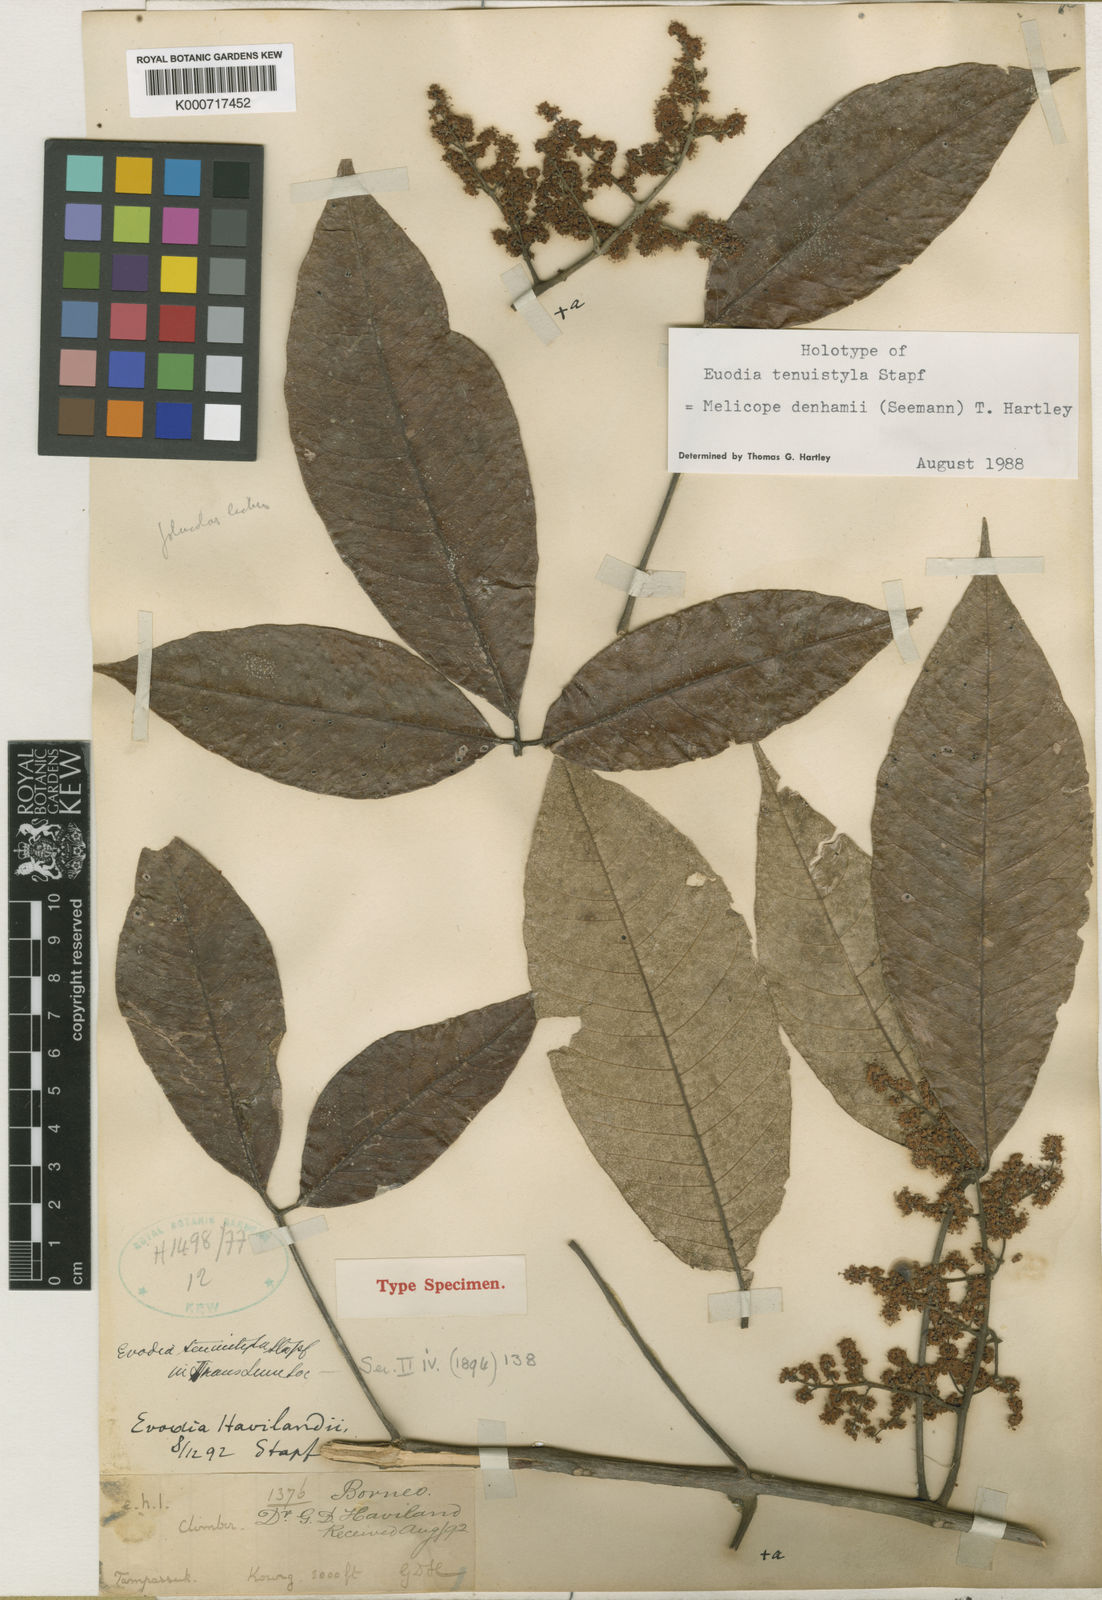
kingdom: Plantae
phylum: Tracheophyta
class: Magnoliopsida
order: Sapindales
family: Rutaceae
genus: Melicope
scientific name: Melicope denhamii
